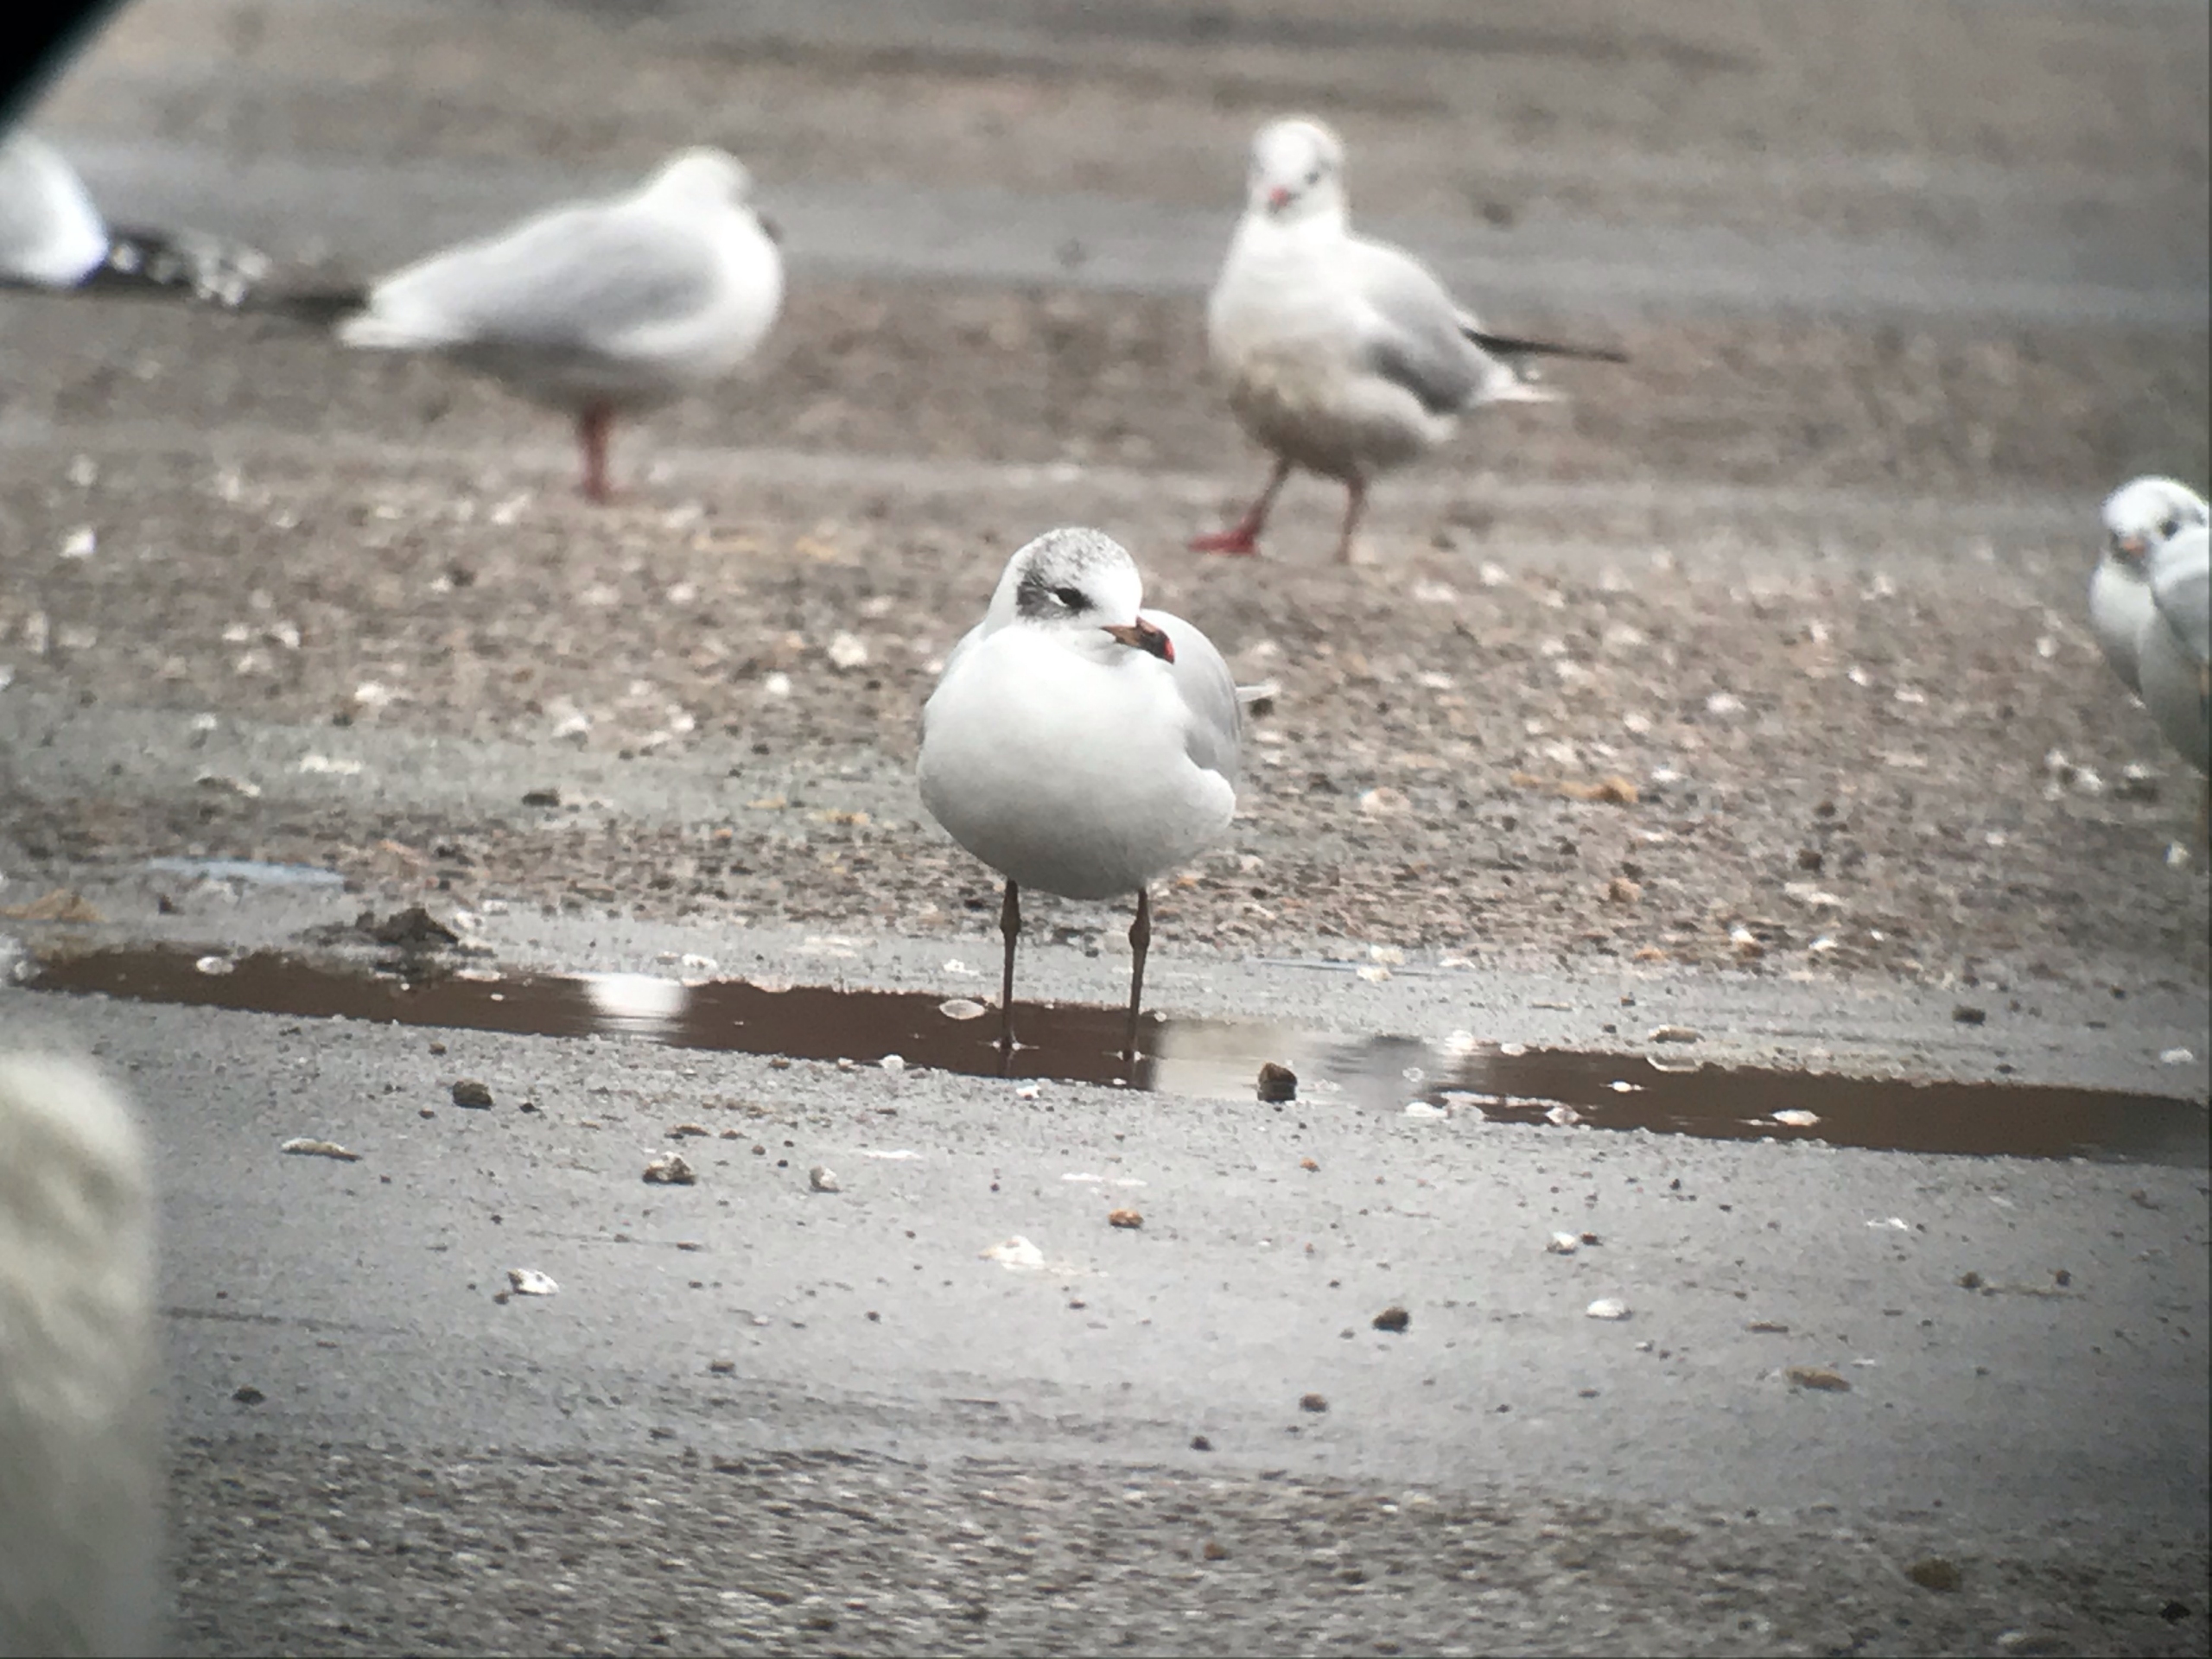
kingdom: Animalia
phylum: Chordata
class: Aves
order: Charadriiformes
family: Laridae
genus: Ichthyaetus
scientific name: Ichthyaetus melanocephalus
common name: Sorthovedet måge
